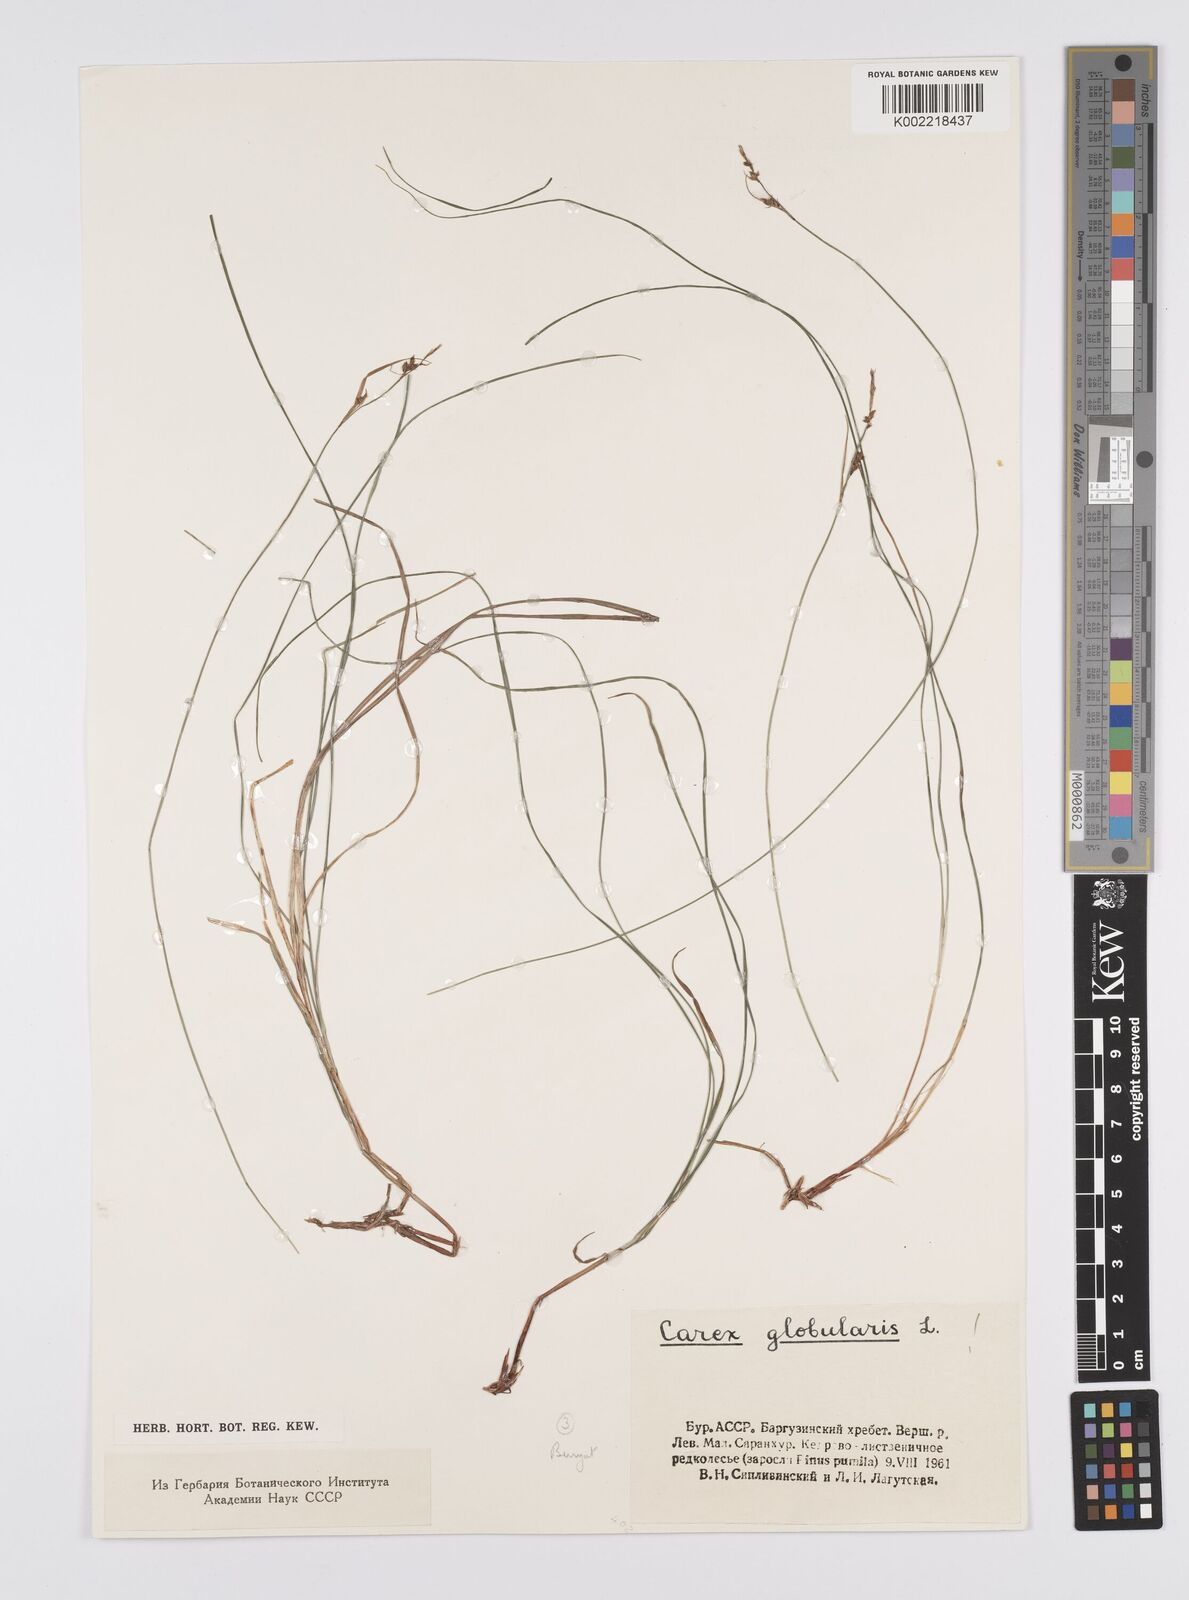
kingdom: Plantae
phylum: Tracheophyta
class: Liliopsida
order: Poales
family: Cyperaceae
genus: Carex
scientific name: Carex globularis
